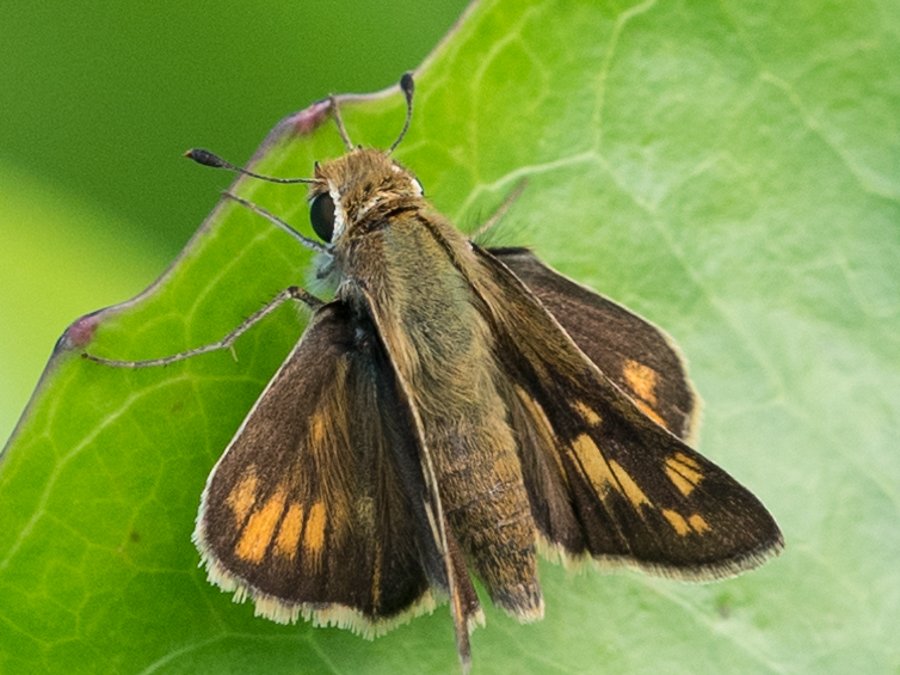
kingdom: Animalia
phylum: Arthropoda
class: Insecta
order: Lepidoptera
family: Hesperiidae
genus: Hylephila
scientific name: Hylephila phyleus
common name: Fiery Skipper
